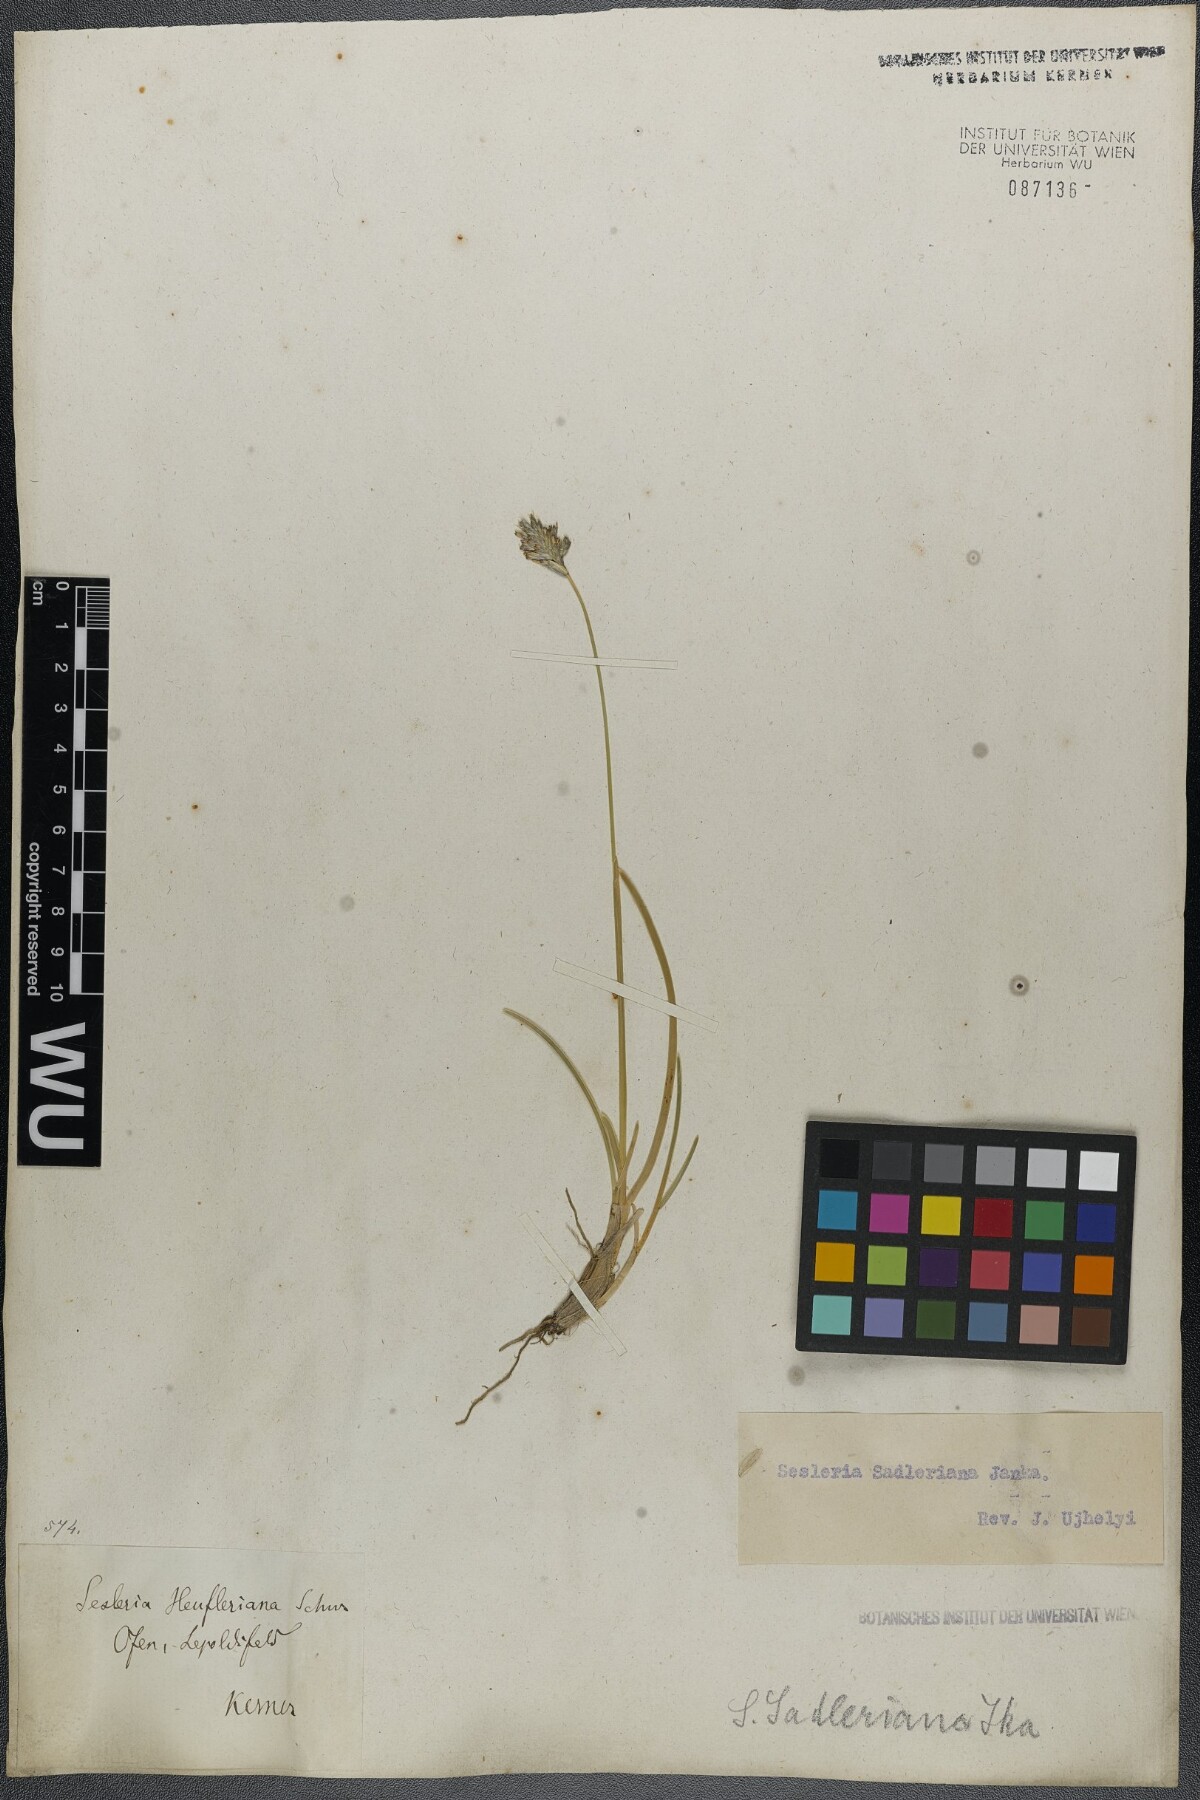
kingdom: Plantae
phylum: Tracheophyta
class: Liliopsida
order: Poales
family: Poaceae
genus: Sesleria
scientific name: Sesleria sadleriana
